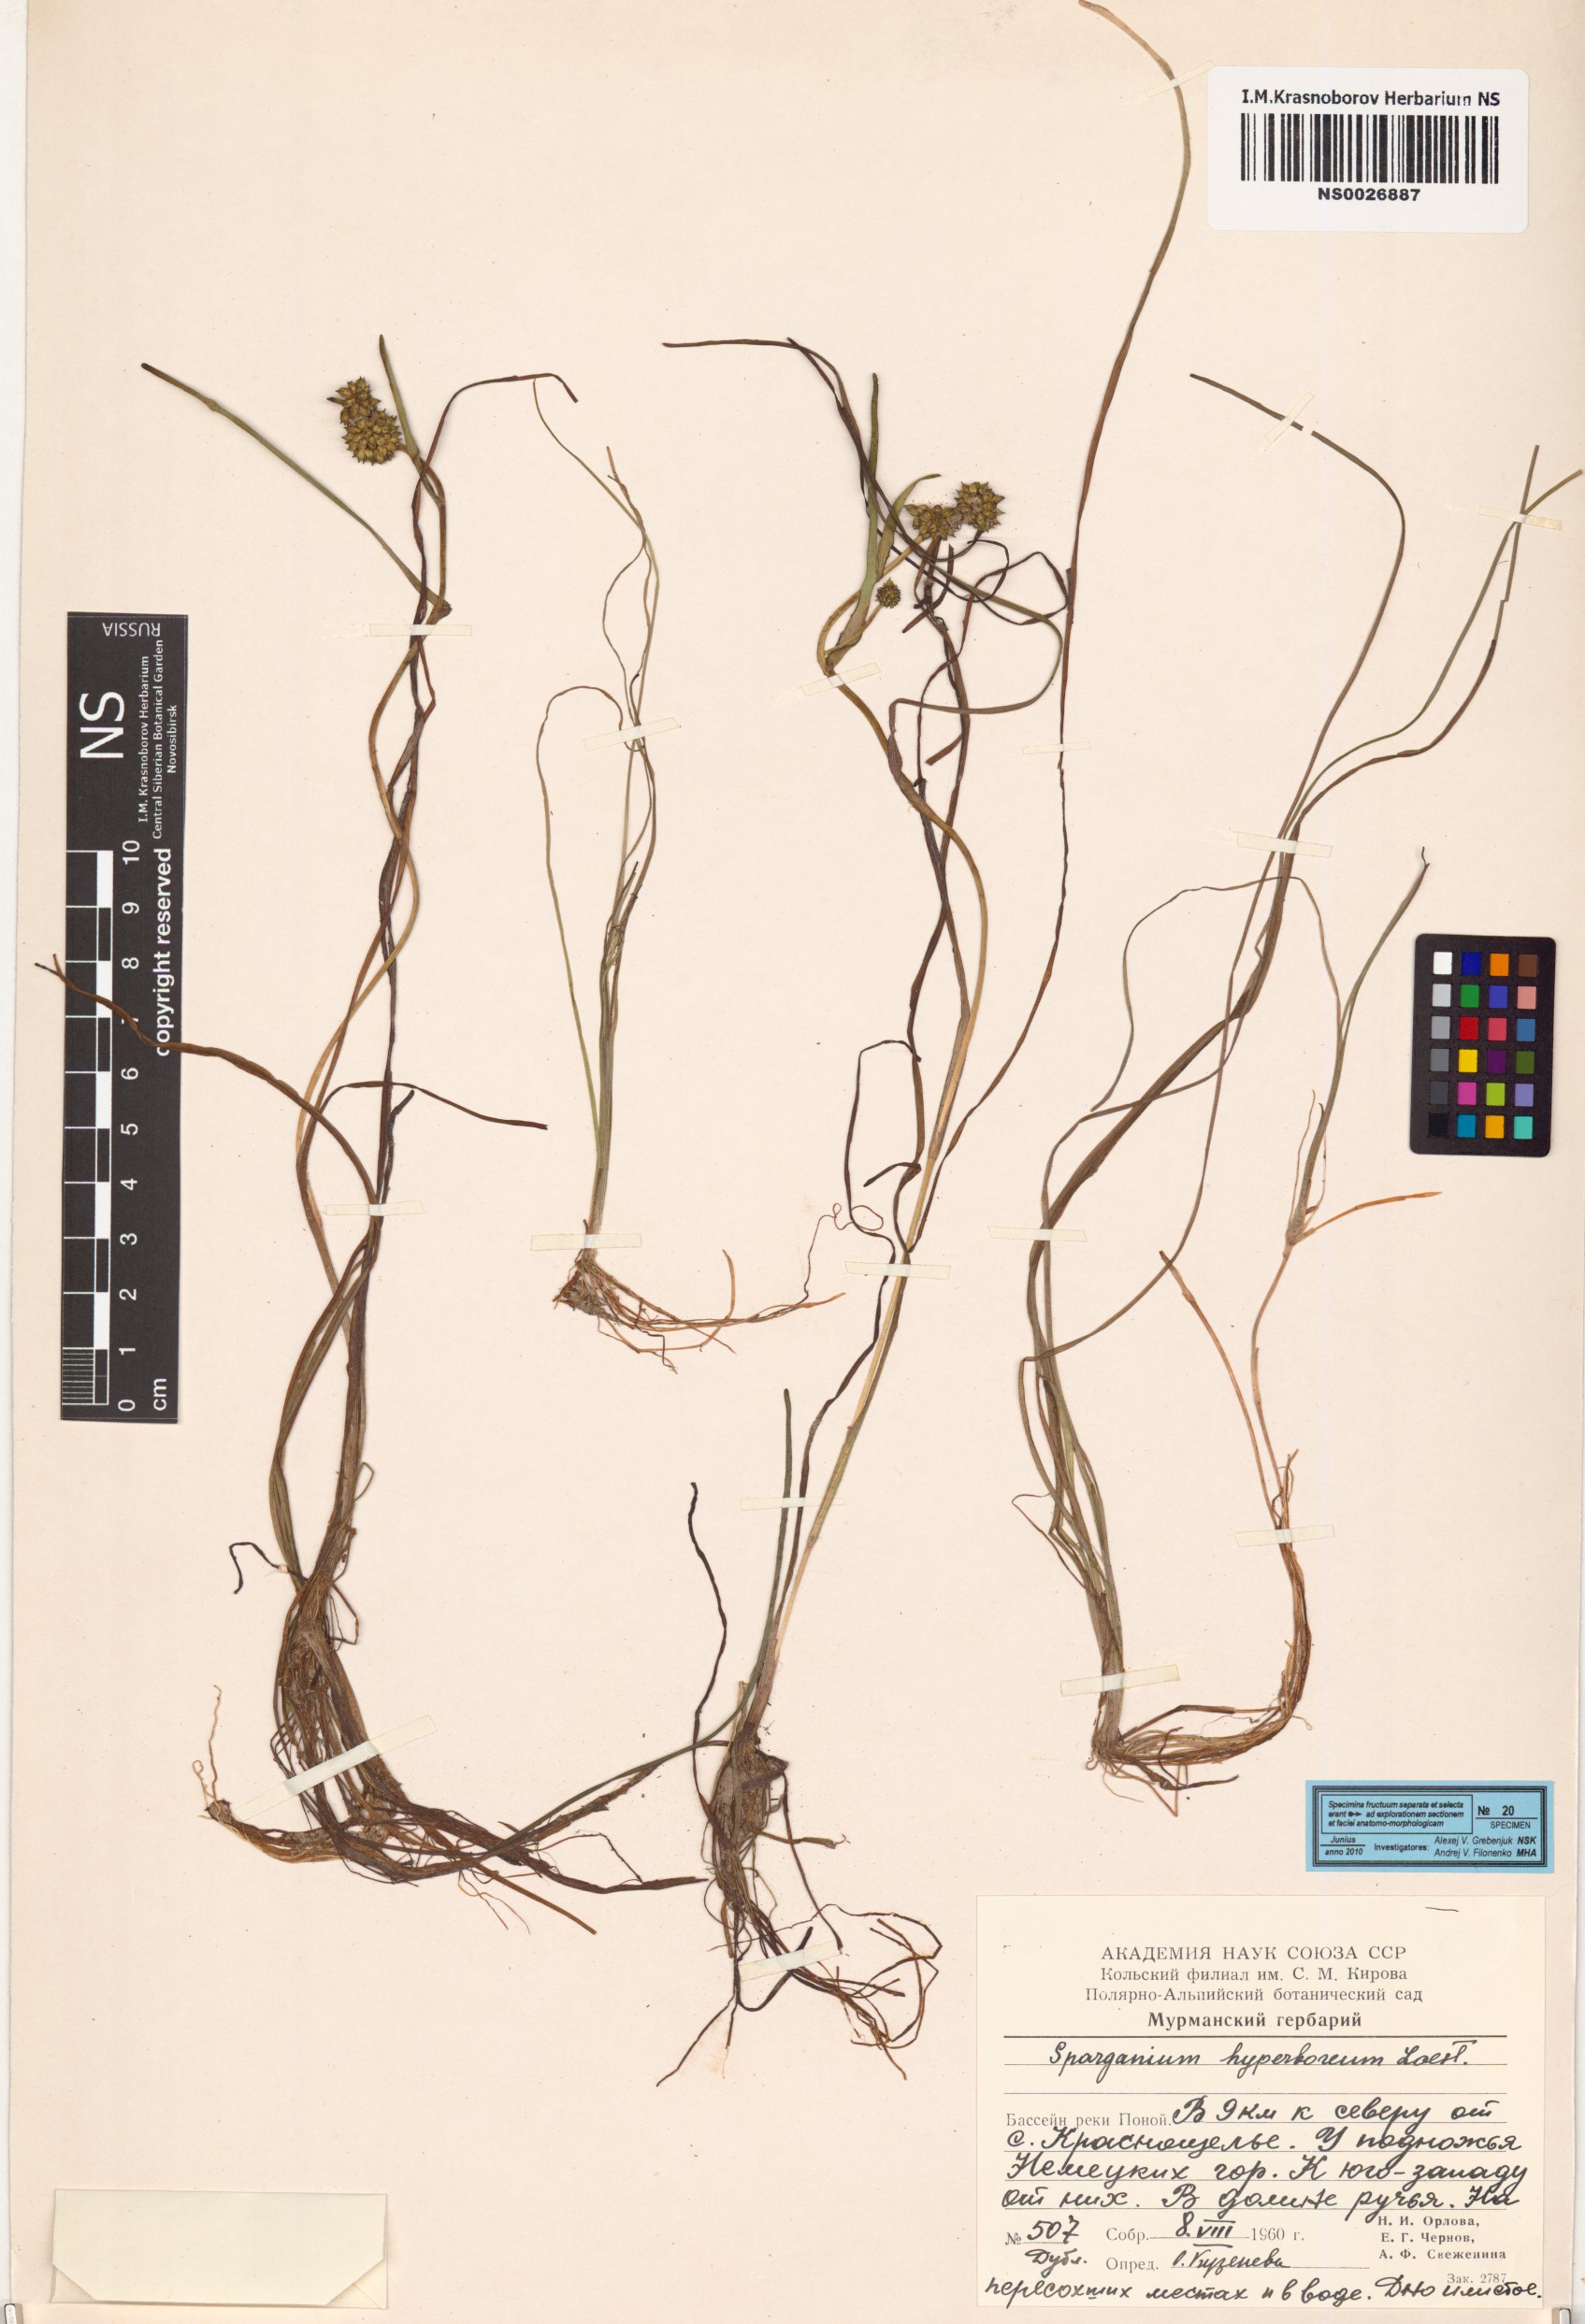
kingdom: Plantae
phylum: Tracheophyta
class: Liliopsida
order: Poales
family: Typhaceae
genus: Sparganium
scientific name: Sparganium hyperboreum
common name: Arctic burreed
